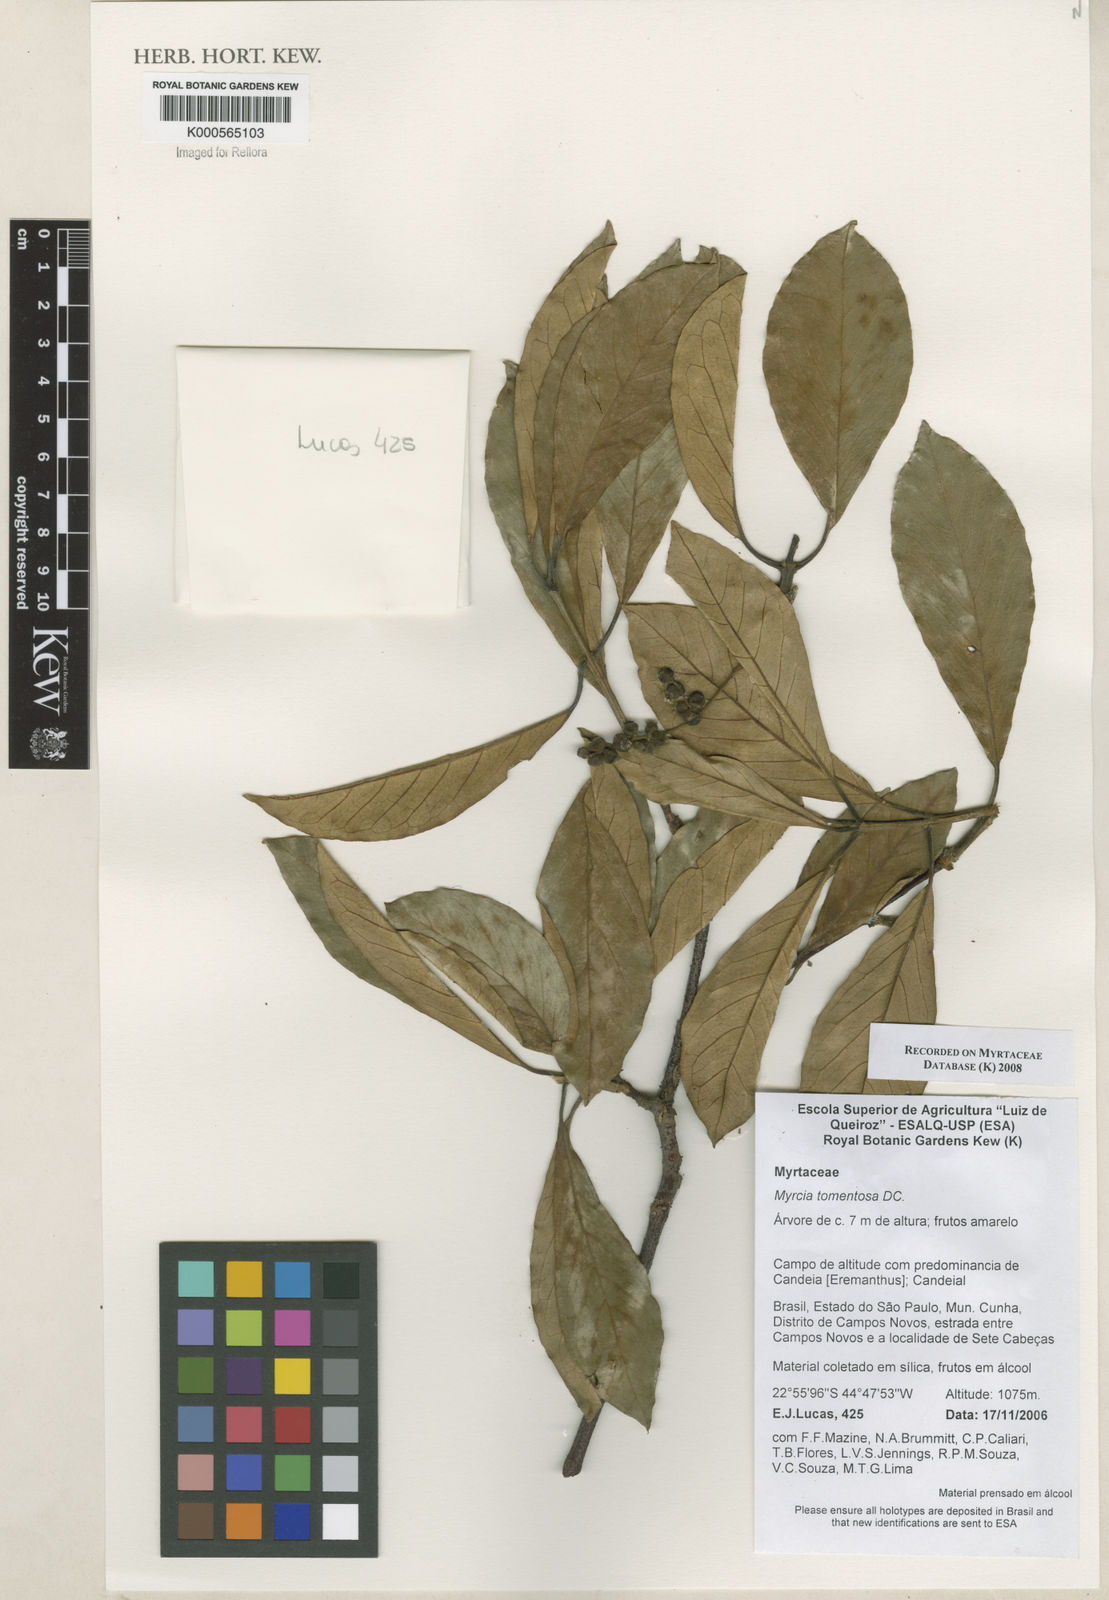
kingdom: Plantae
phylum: Tracheophyta
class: Magnoliopsida
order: Myrtales
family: Myrtaceae
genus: Myrcia
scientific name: Myrcia tomentosa
